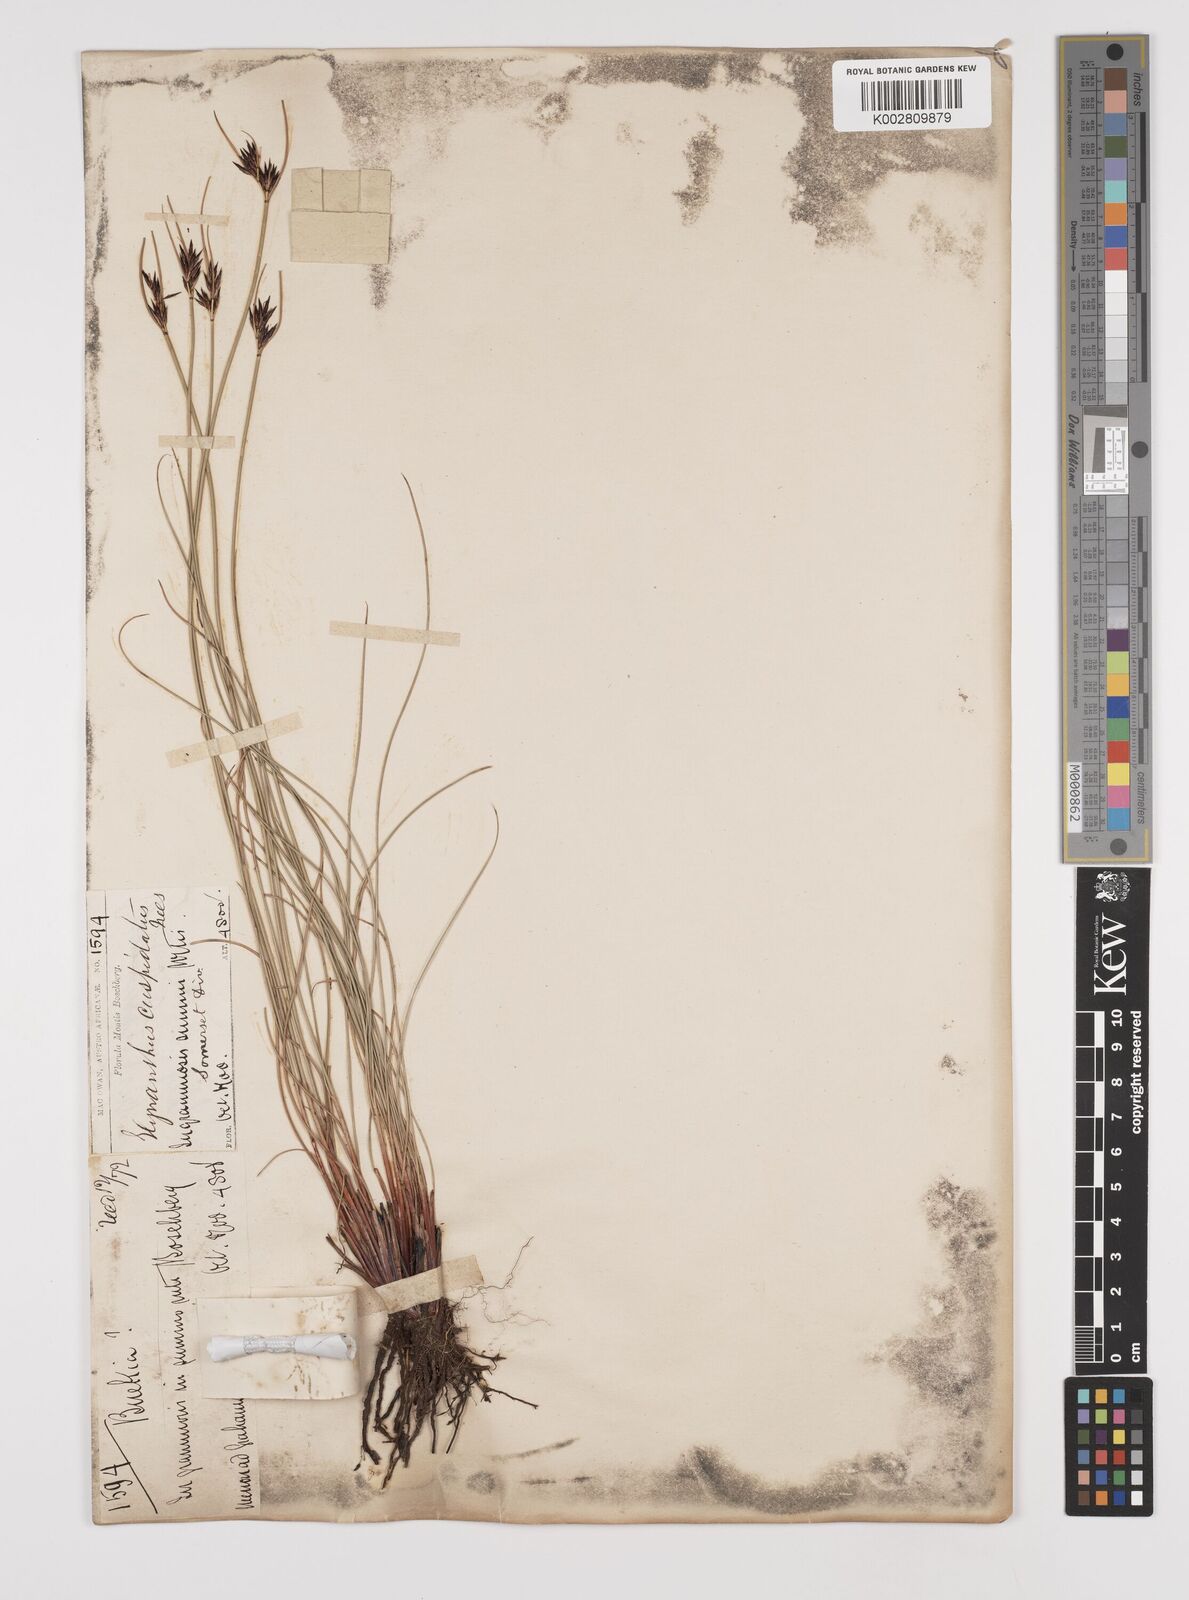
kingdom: Plantae
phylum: Tracheophyta
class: Liliopsida
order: Poales
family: Cyperaceae
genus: Schoenus
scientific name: Schoenus
